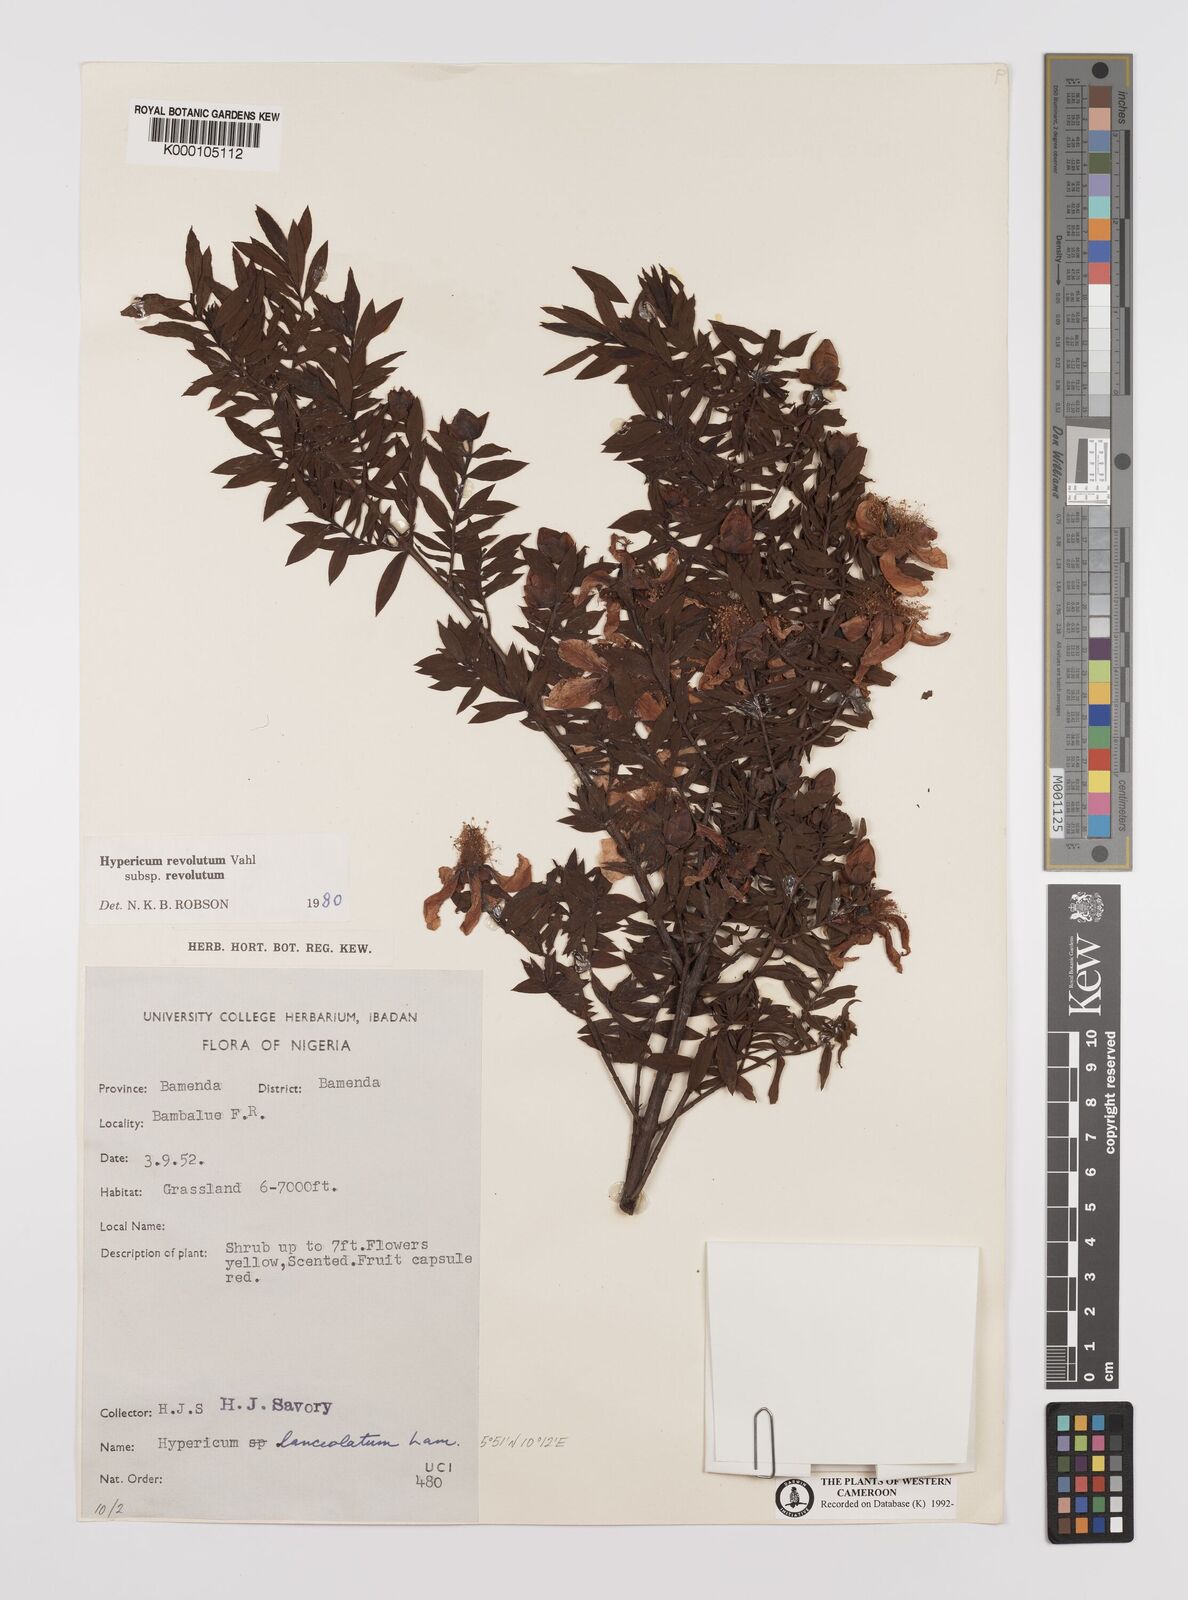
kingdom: Plantae
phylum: Tracheophyta
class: Magnoliopsida
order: Malpighiales
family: Hypericaceae
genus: Hypericum
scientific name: Hypericum revolutum
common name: Curry bush
